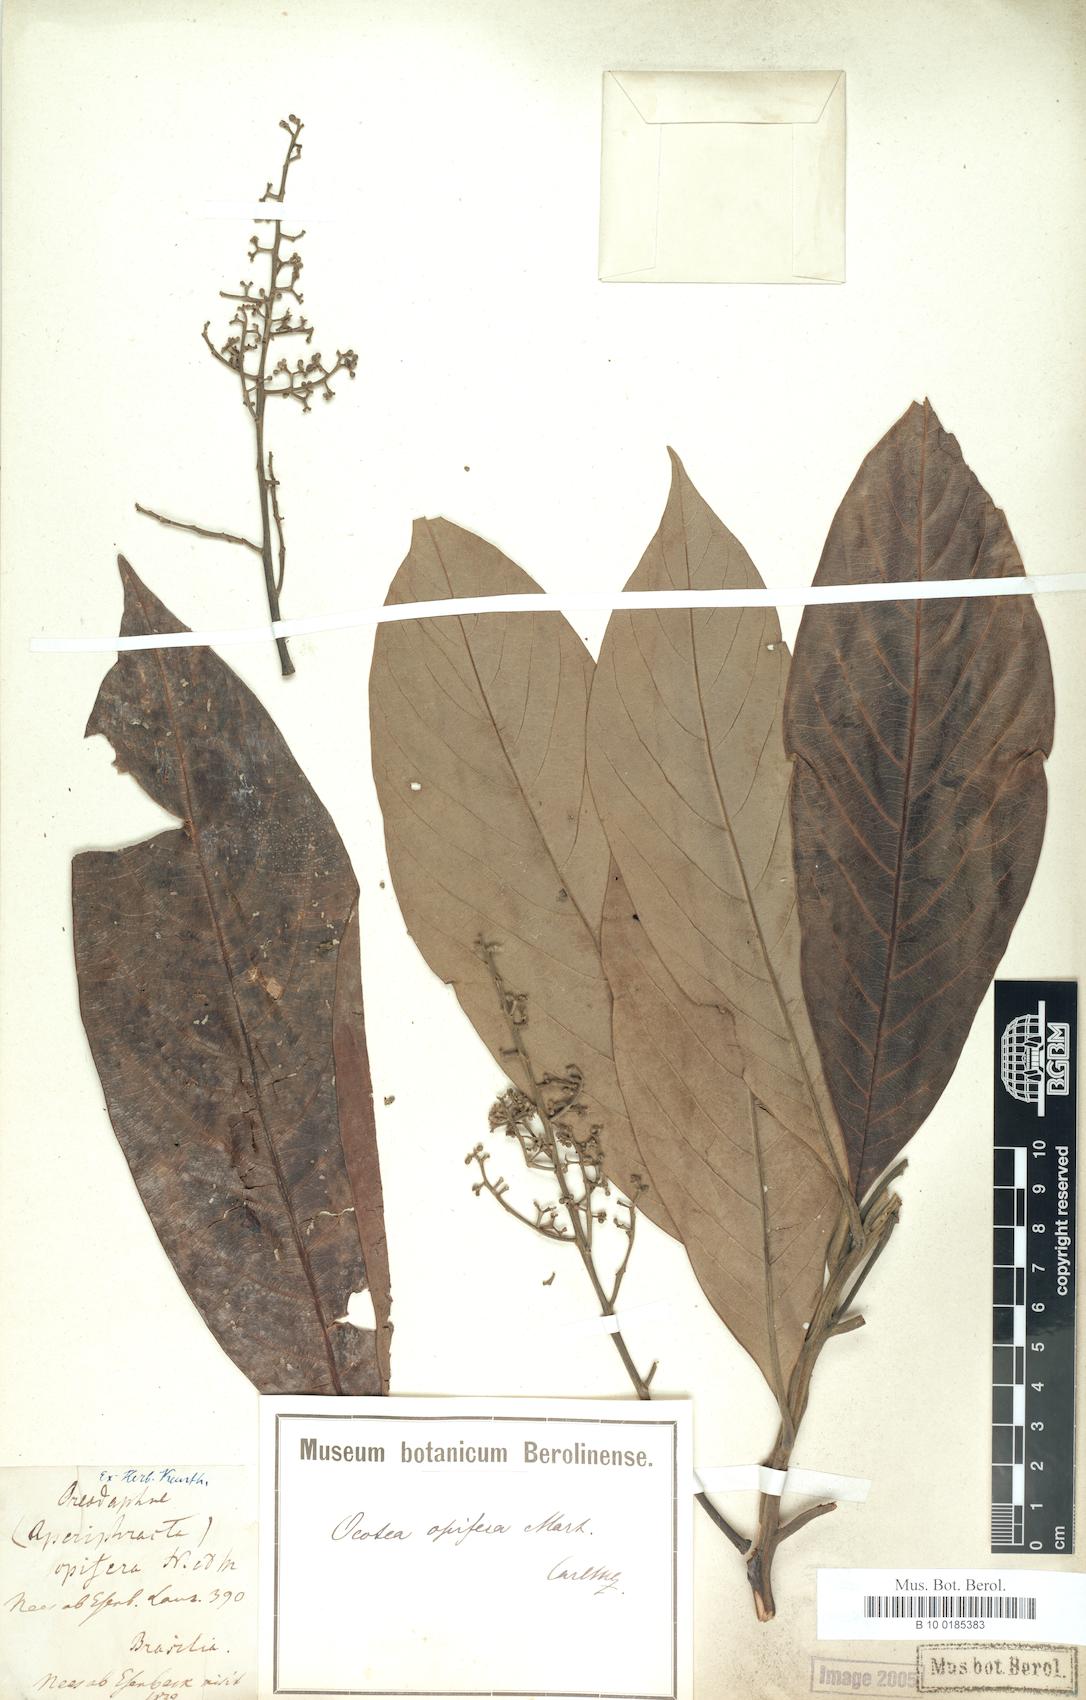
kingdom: Plantae
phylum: Tracheophyta
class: Magnoliopsida
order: Laurales
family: Lauraceae
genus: Mespilodaphne
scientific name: Mespilodaphne opifera
